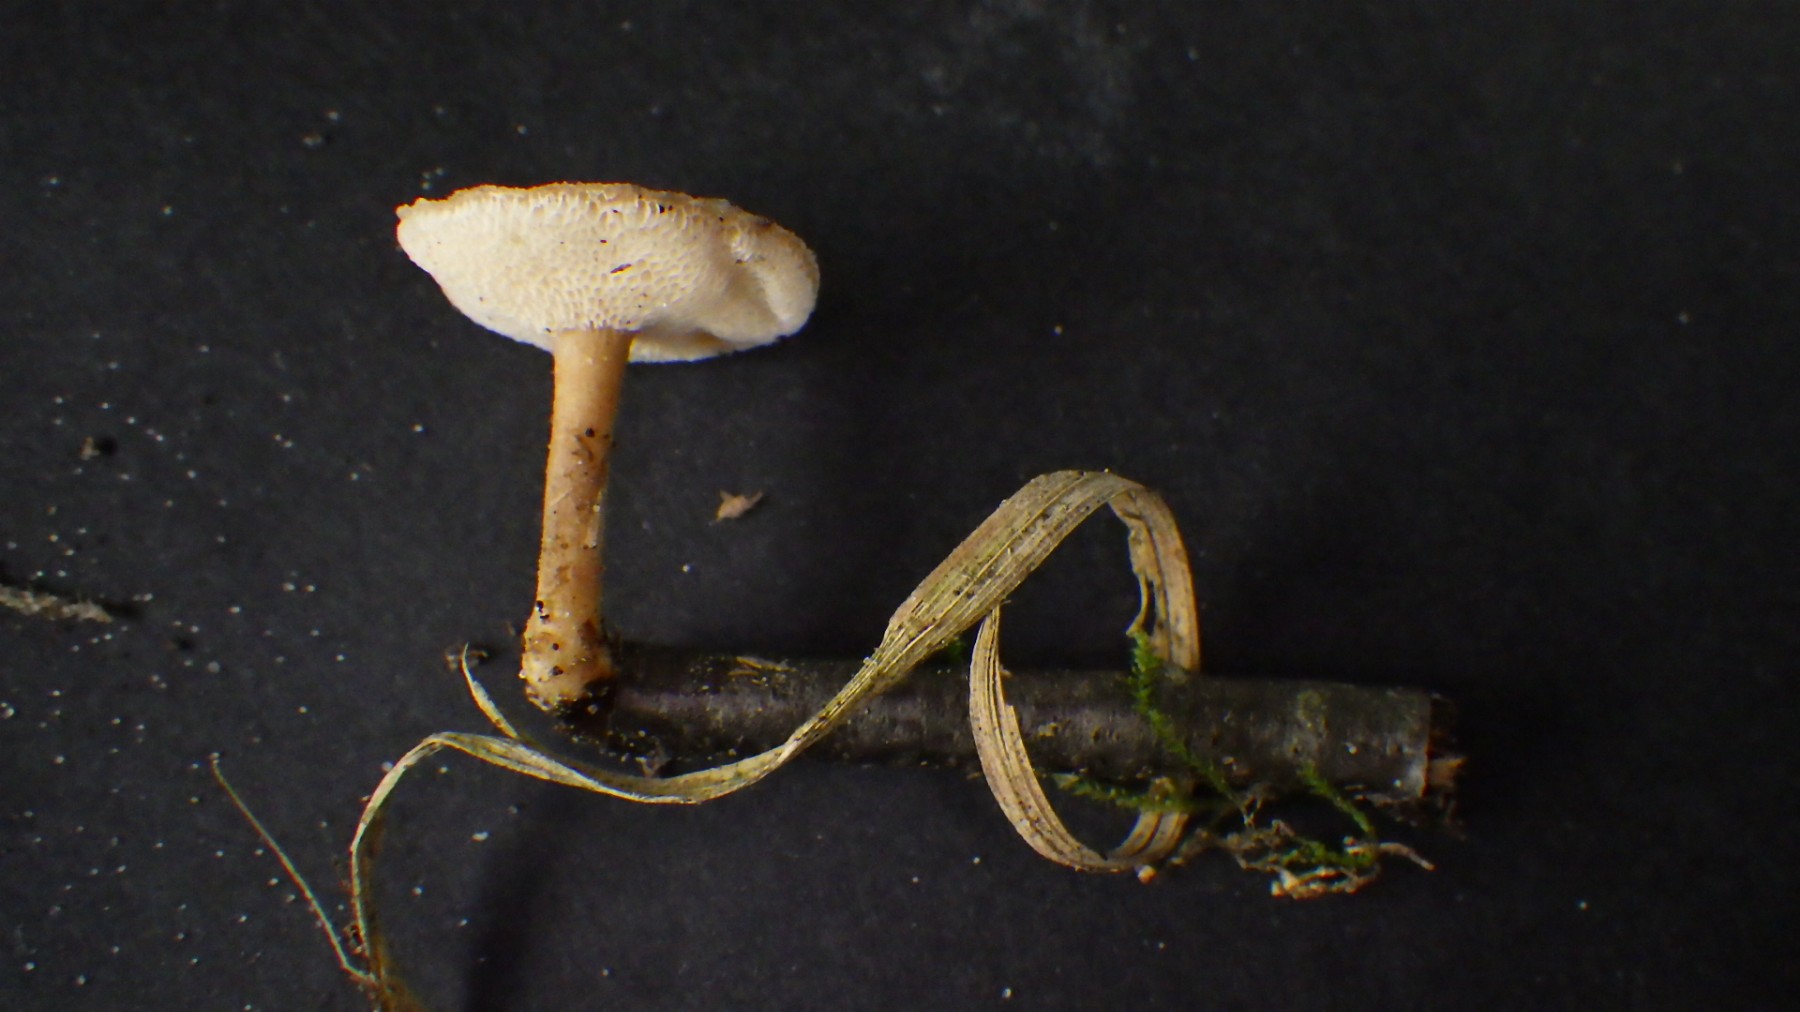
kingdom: Fungi
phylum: Basidiomycota
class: Agaricomycetes
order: Polyporales
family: Polyporaceae
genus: Lentinus
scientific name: Lentinus brumalis
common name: vinter-stilkporesvamp
